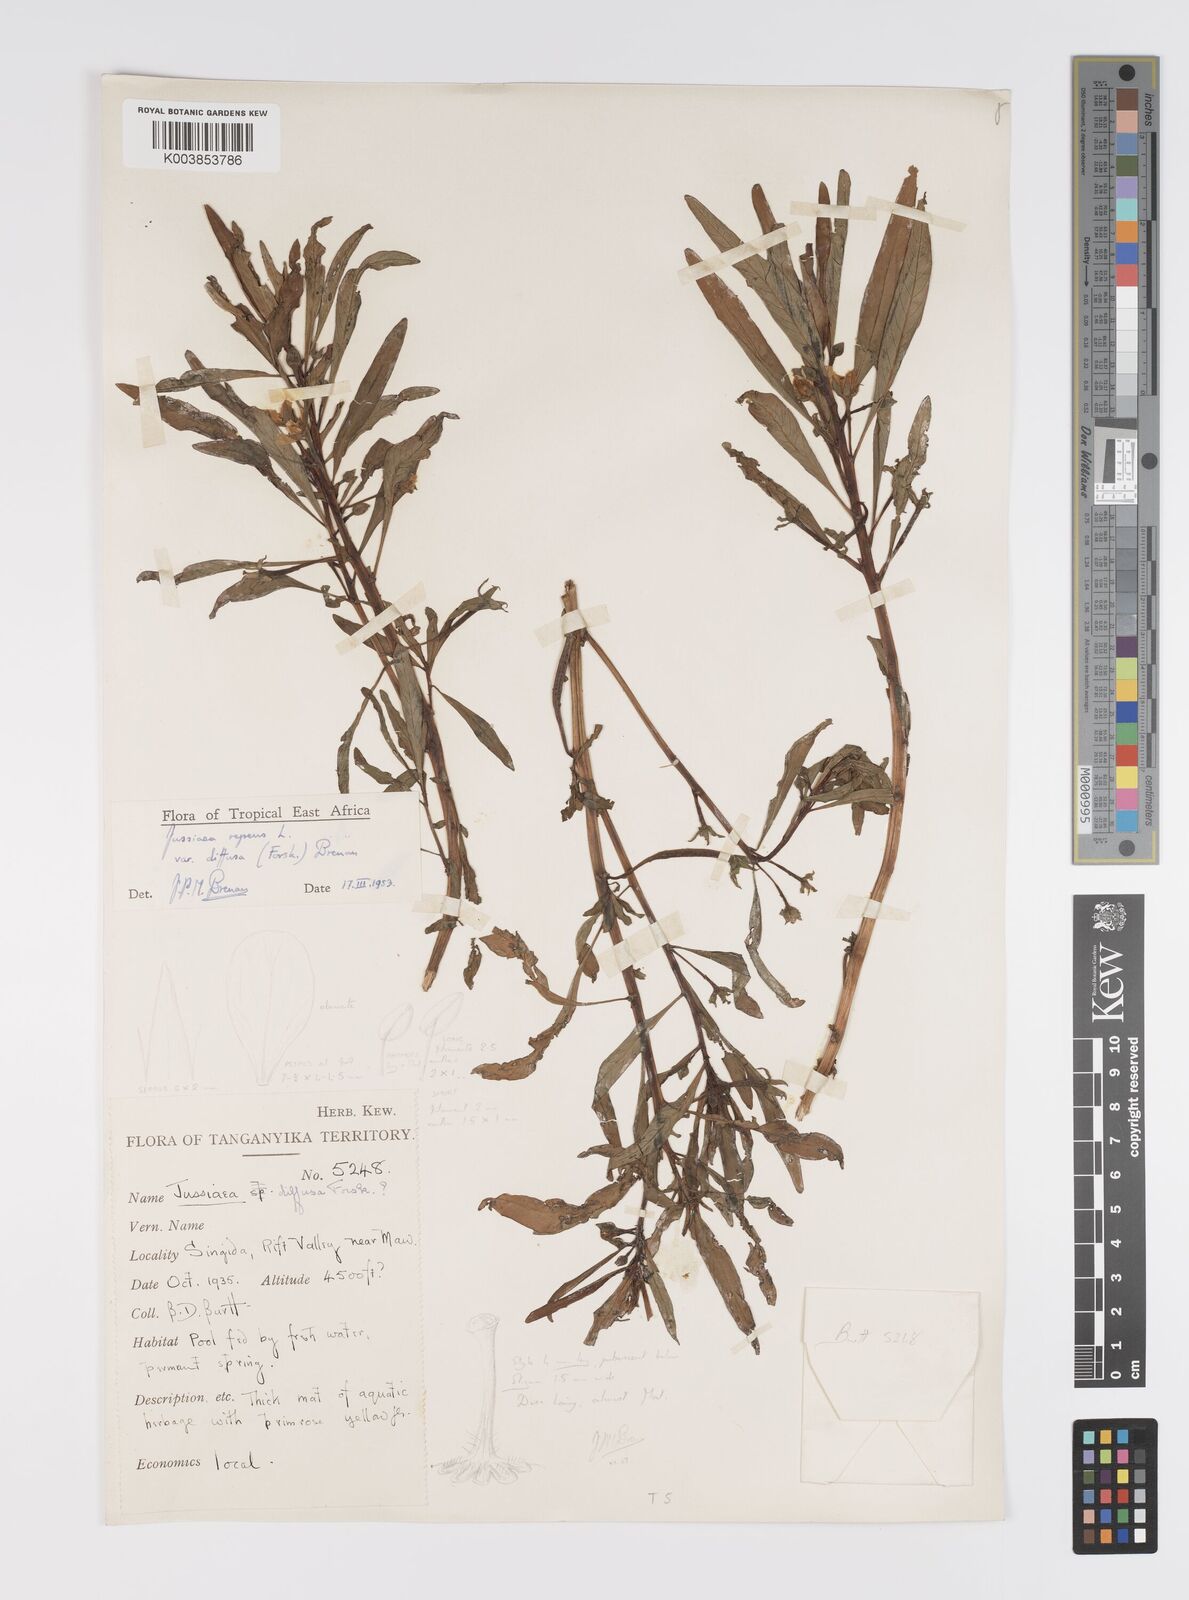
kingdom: Plantae
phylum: Tracheophyta
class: Magnoliopsida
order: Myrtales
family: Onagraceae
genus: Ludwigia
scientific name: Ludwigia repens
